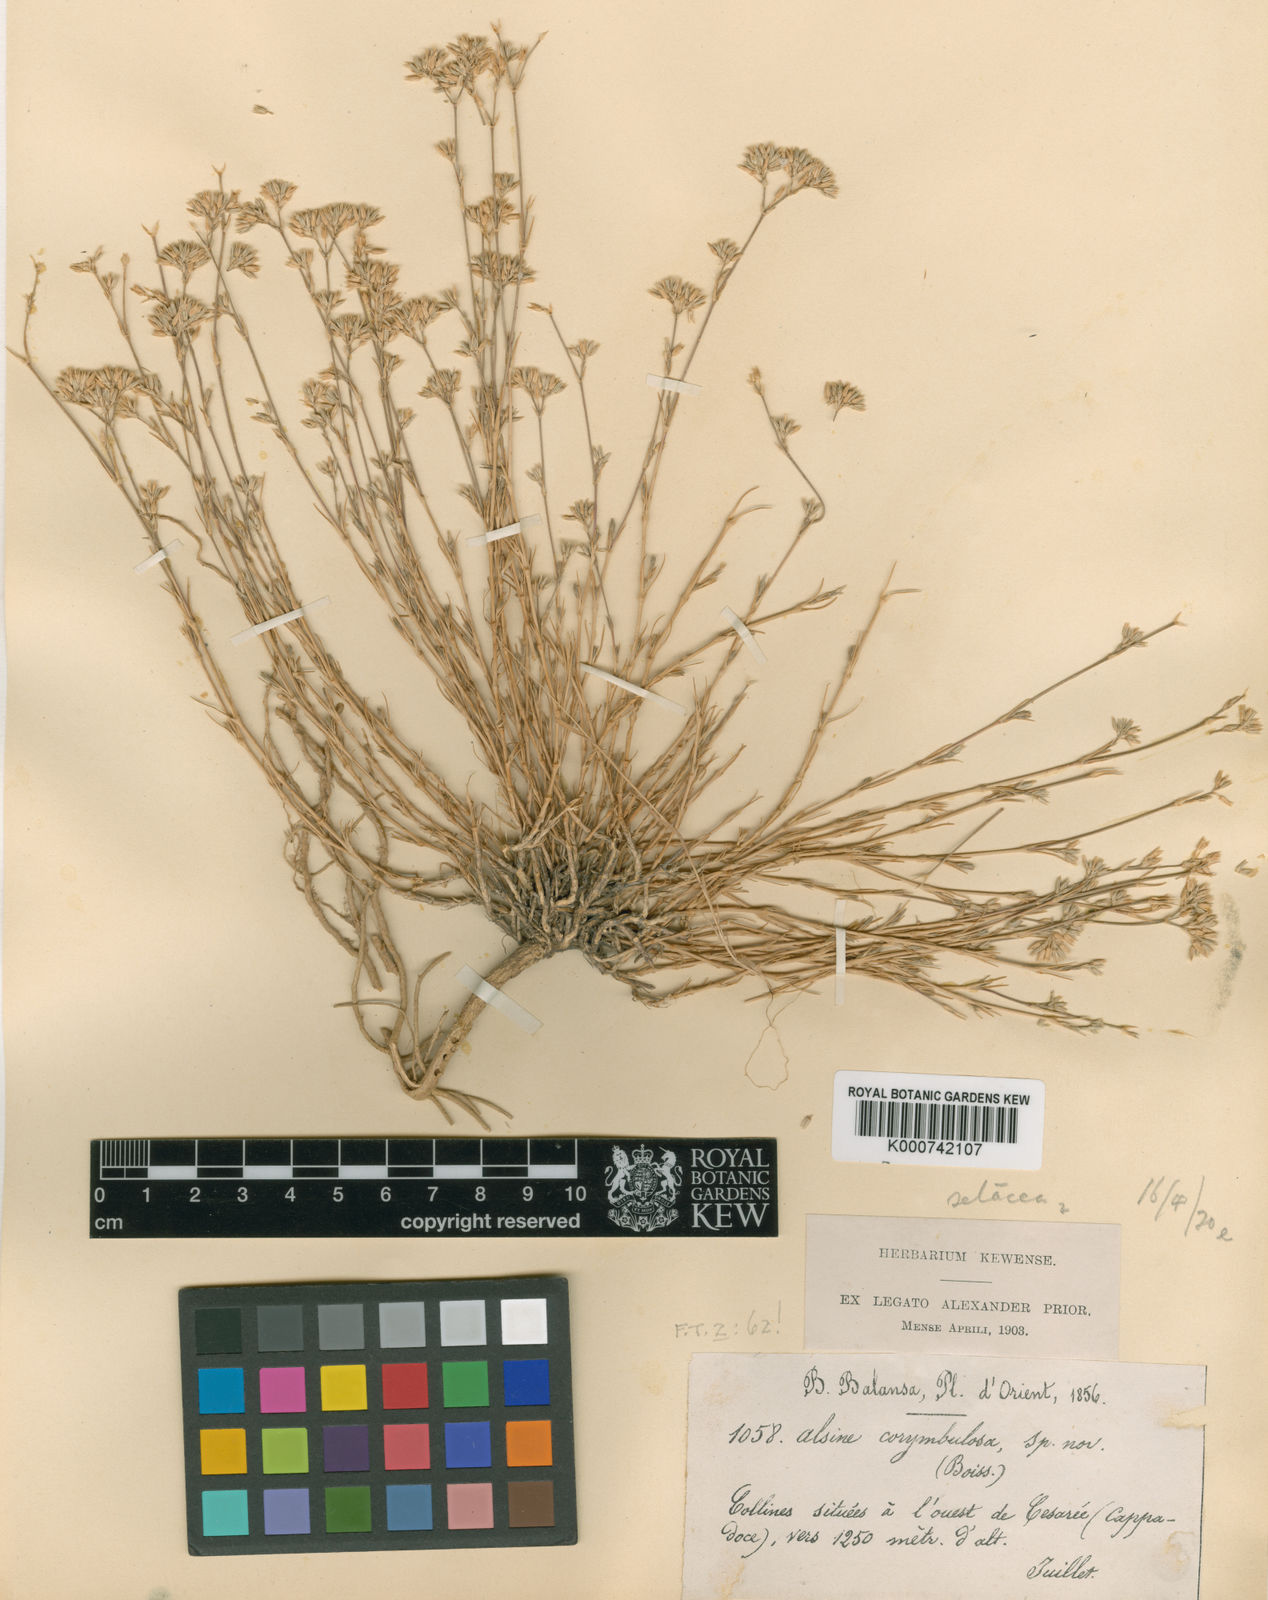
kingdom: Plantae
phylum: Tracheophyta
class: Magnoliopsida
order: Caryophyllales
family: Caryophyllaceae
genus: Minuartia
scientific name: Minuartia corymbulosa
